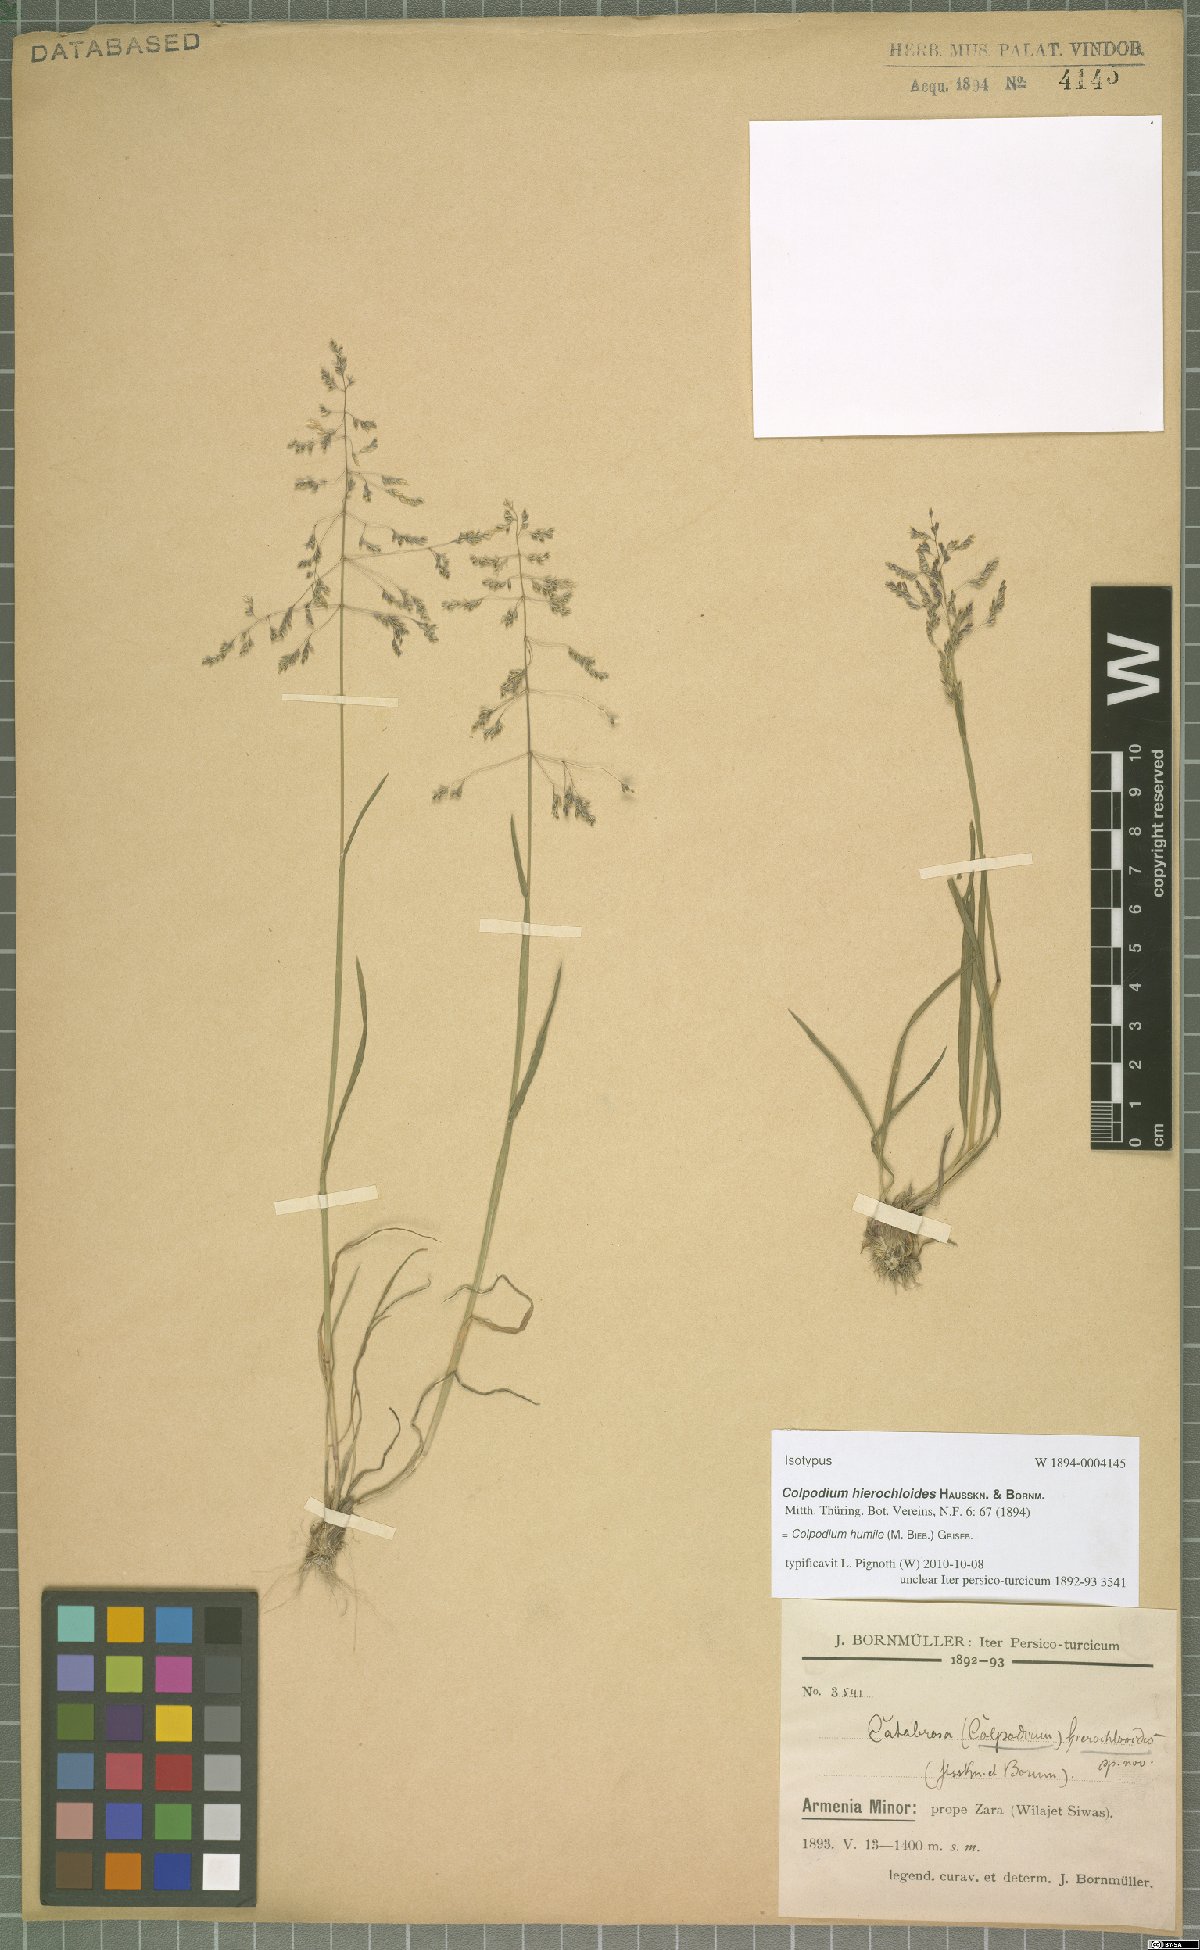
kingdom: Plantae
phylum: Tracheophyta
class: Liliopsida
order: Poales
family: Poaceae
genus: Catabrosella
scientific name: Catabrosella humilis
